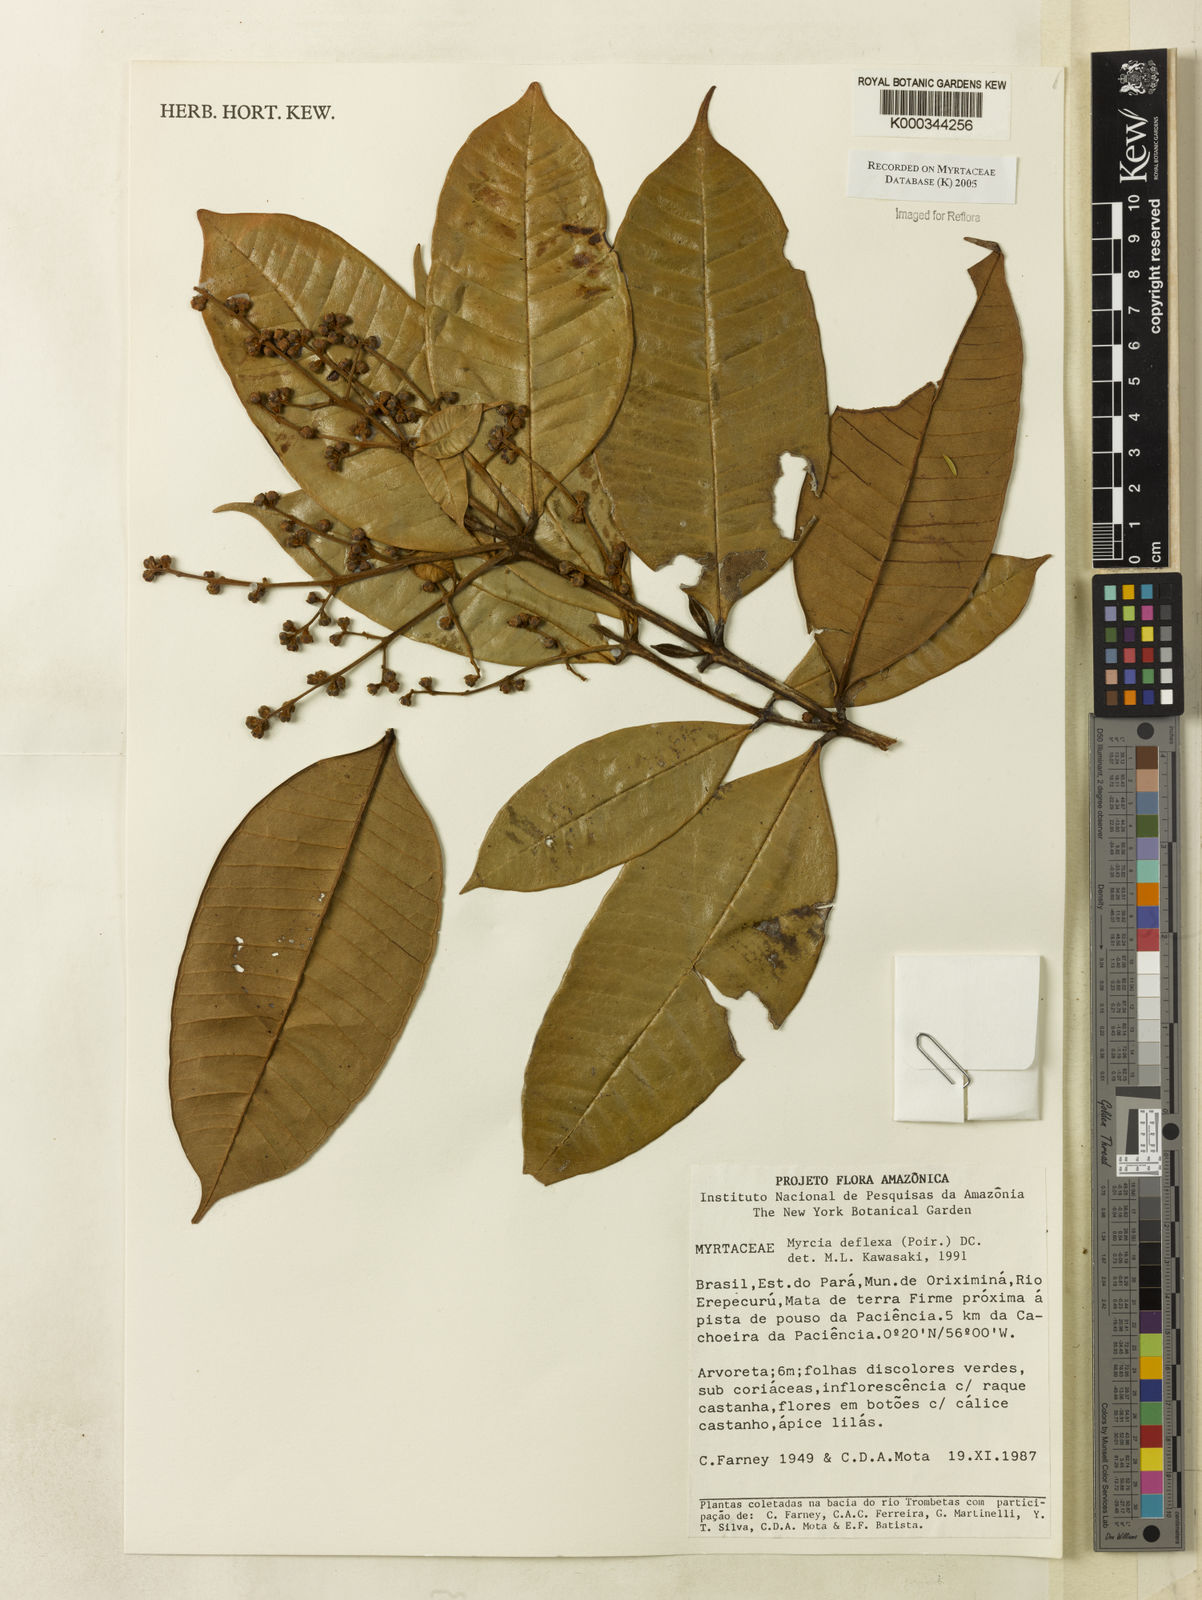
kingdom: Plantae
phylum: Tracheophyta
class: Magnoliopsida
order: Myrtales
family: Myrtaceae
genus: Myrcia
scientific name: Myrcia deflexa
